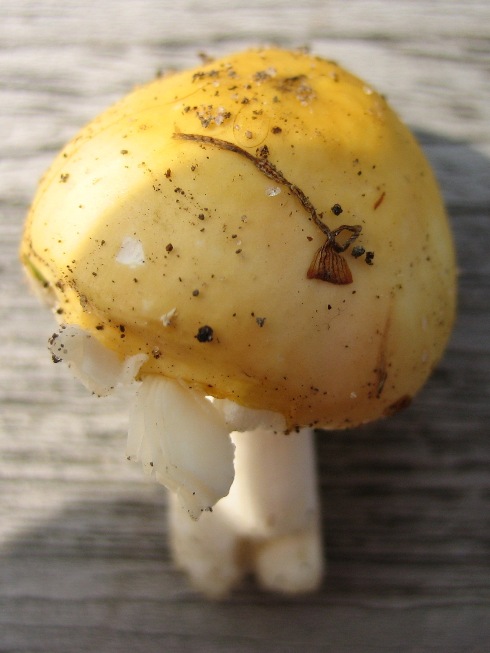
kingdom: Fungi
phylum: Basidiomycota
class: Agaricomycetes
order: Russulales
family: Russulaceae
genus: Russula
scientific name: Russula risigallina
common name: abrikos-skørhat
